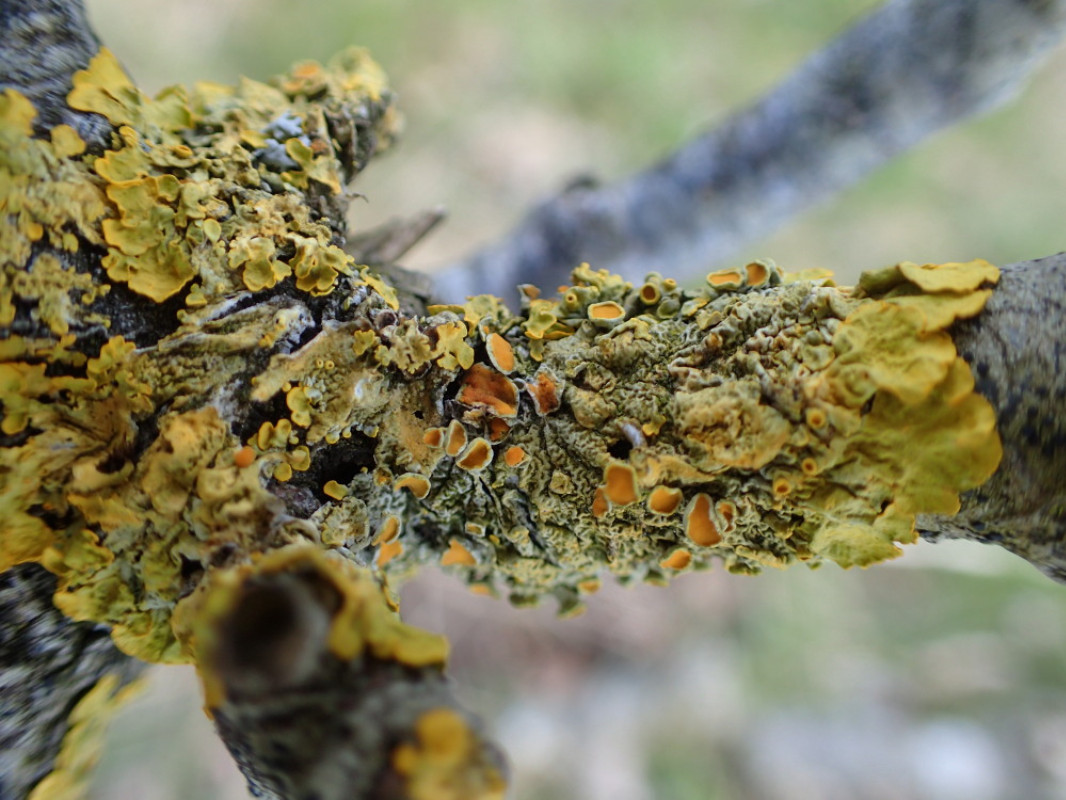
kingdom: Fungi
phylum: Ascomycota
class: Lecanoromycetes
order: Teloschistales
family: Teloschistaceae
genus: Xanthoria
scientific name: Xanthoria parietina
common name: almindelig væggelav
